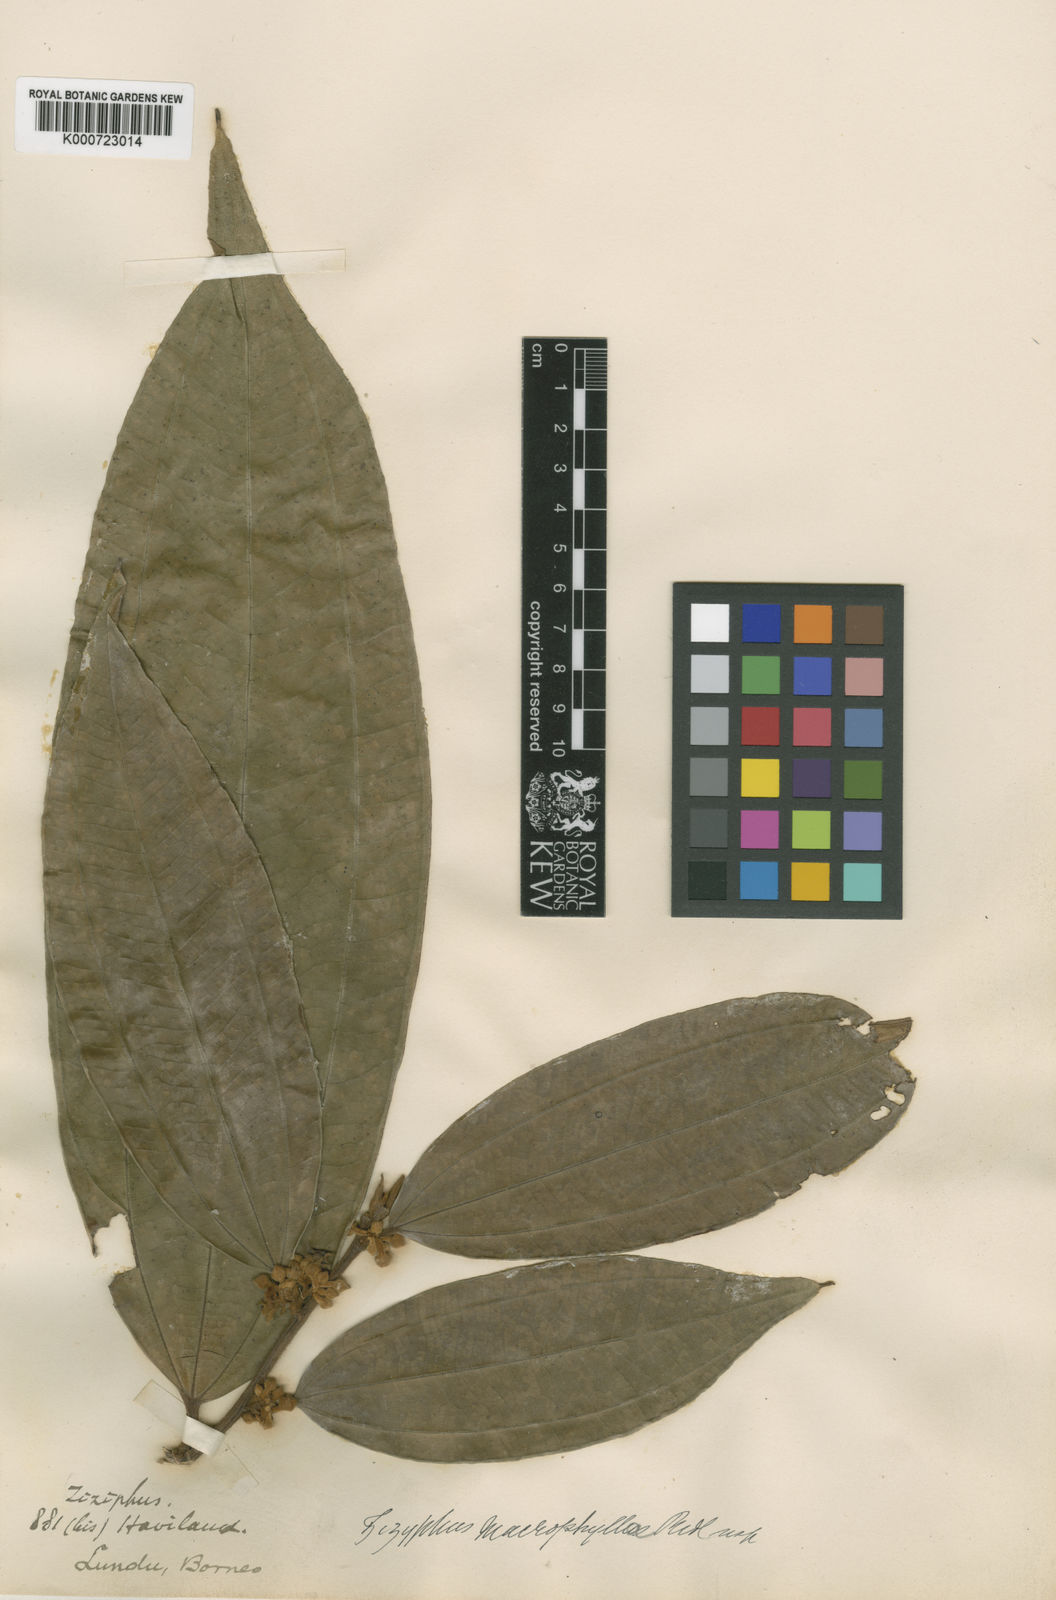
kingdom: Plantae
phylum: Tracheophyta
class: Magnoliopsida
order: Rosales
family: Rhamnaceae
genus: Ziziphus
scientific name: Ziziphus affinis
